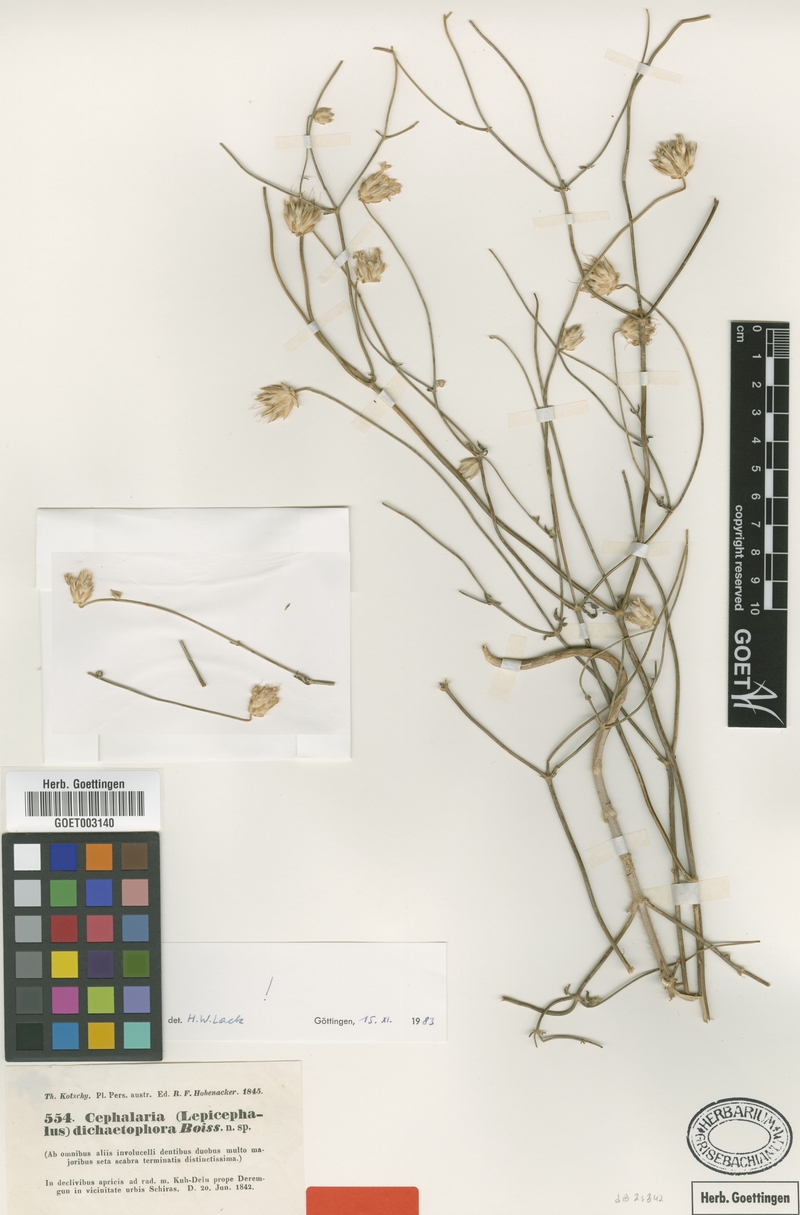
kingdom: Plantae
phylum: Tracheophyta
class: Magnoliopsida
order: Dipsacales
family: Caprifoliaceae
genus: Cephalaria
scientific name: Cephalaria dichaetophora
